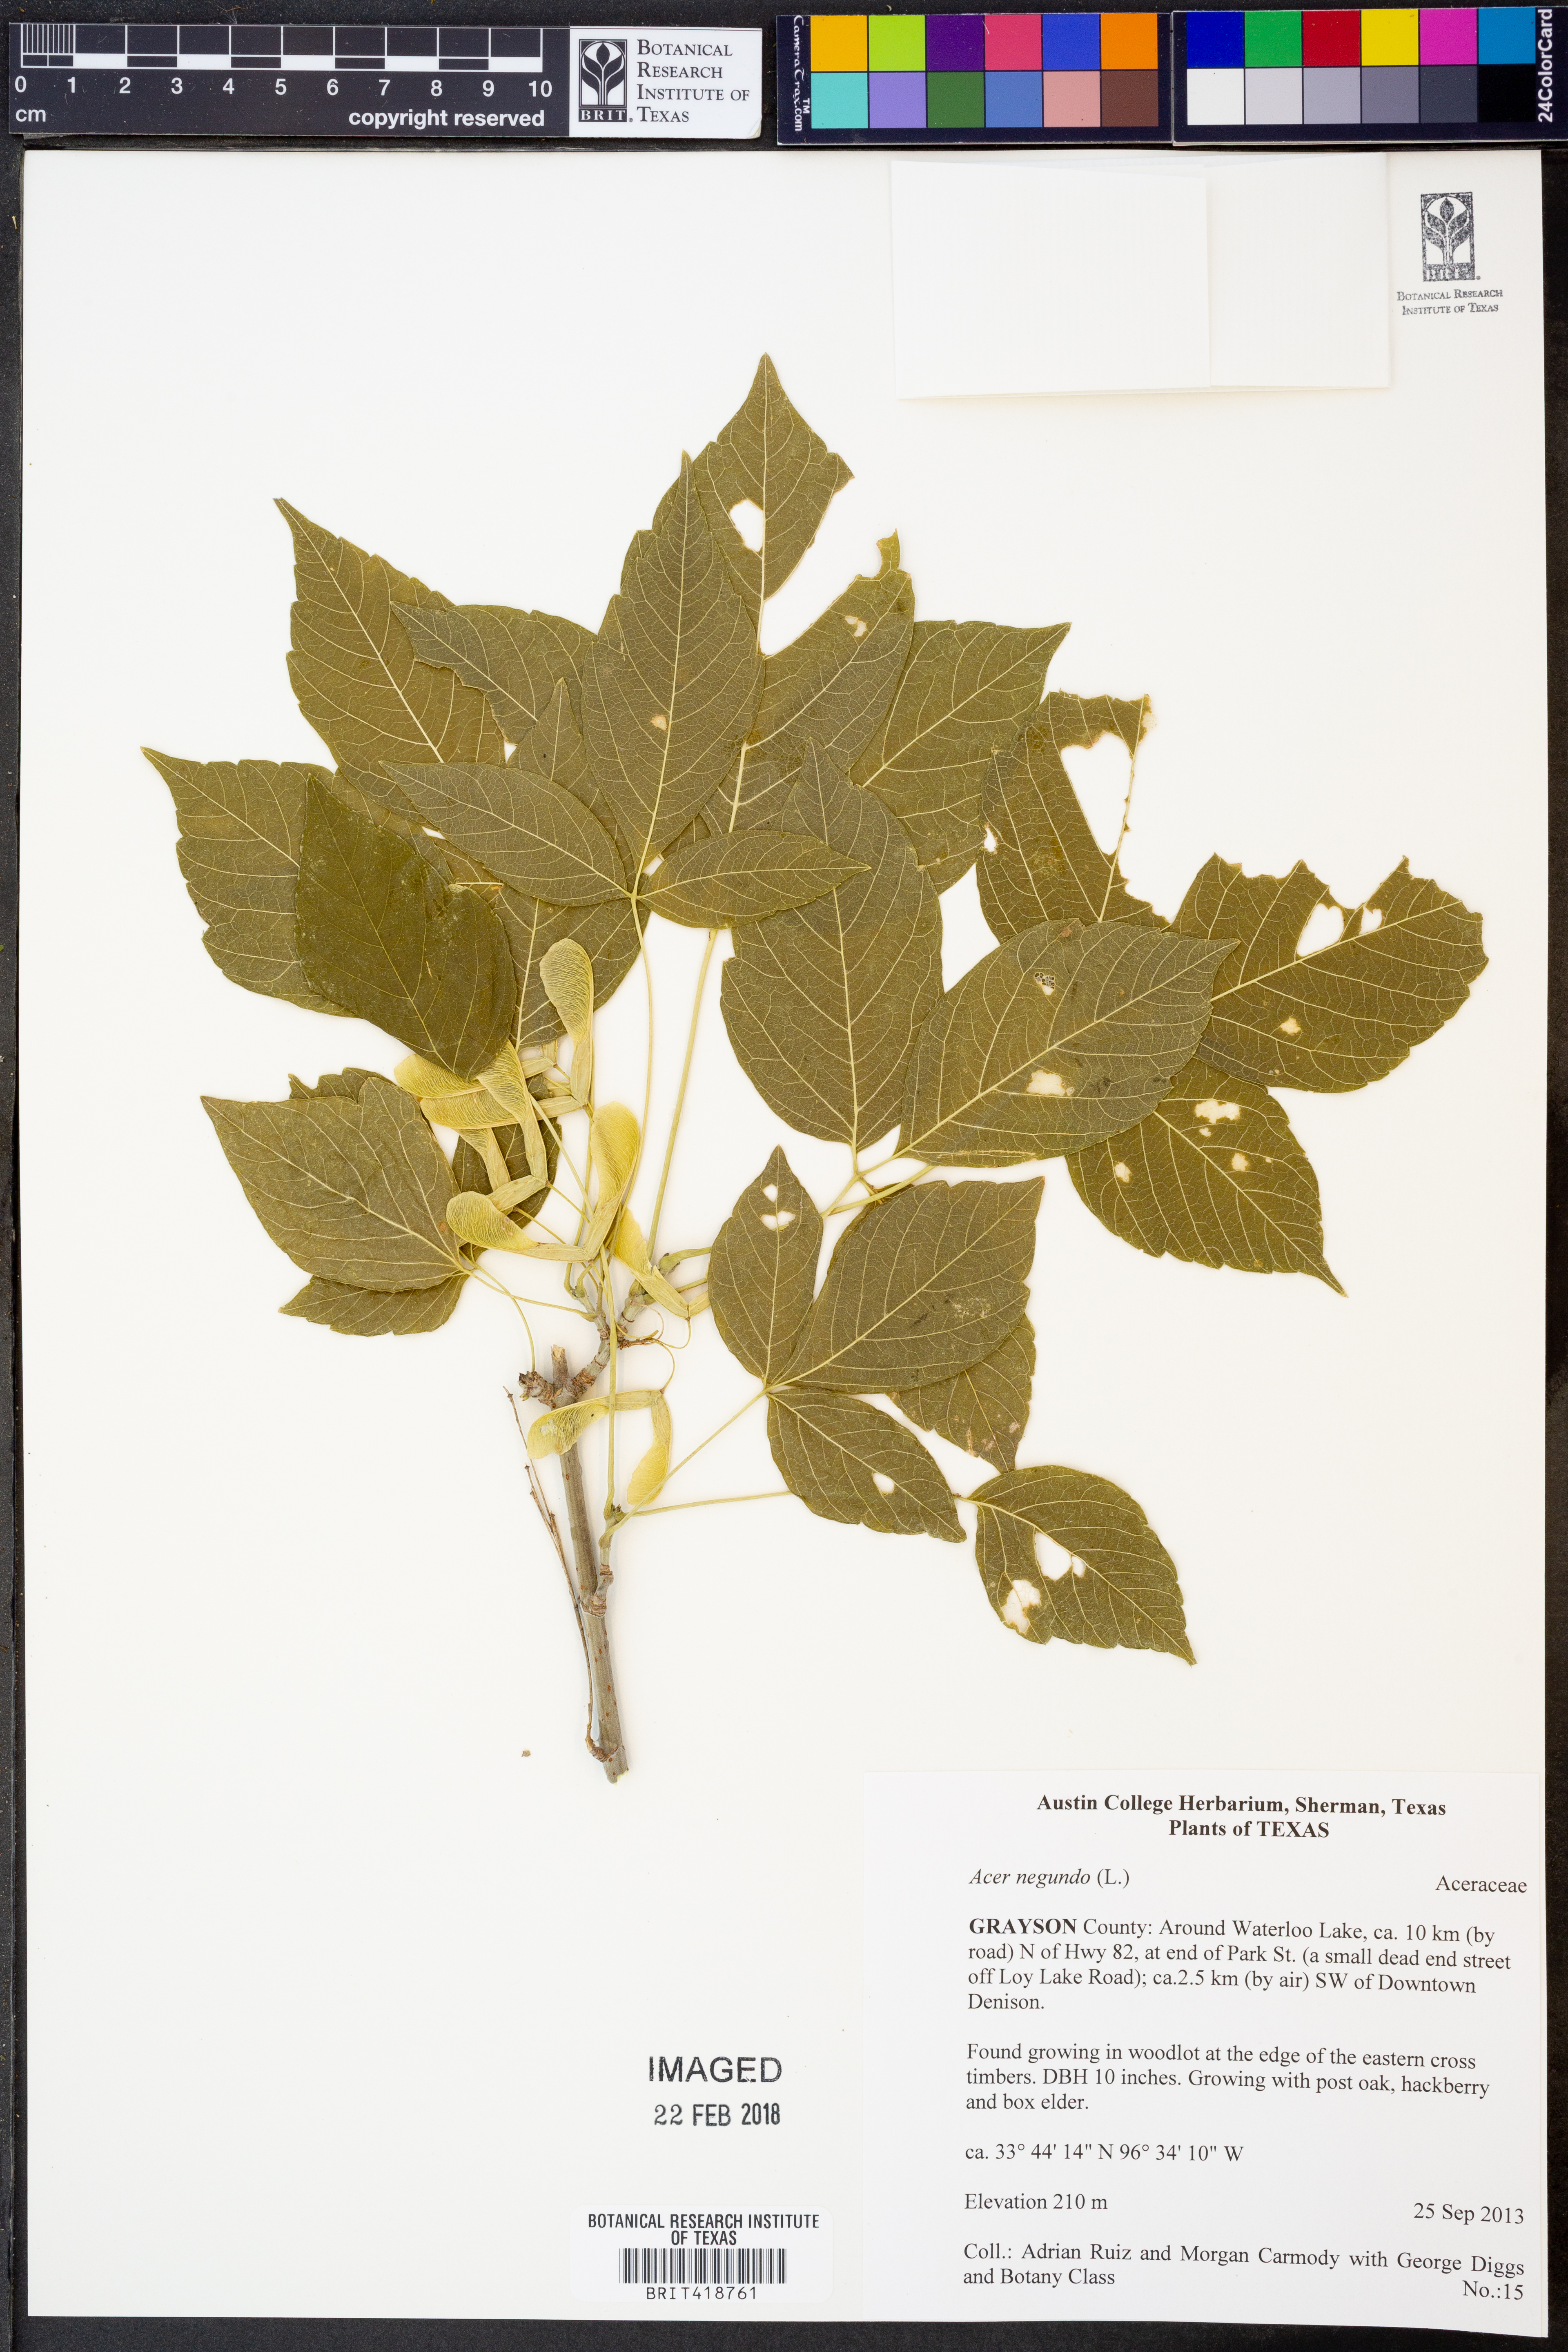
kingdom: Plantae
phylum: Tracheophyta
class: Magnoliopsida
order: Sapindales
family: Sapindaceae
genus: Acer
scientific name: Acer negundo
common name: Ashleaf maple
